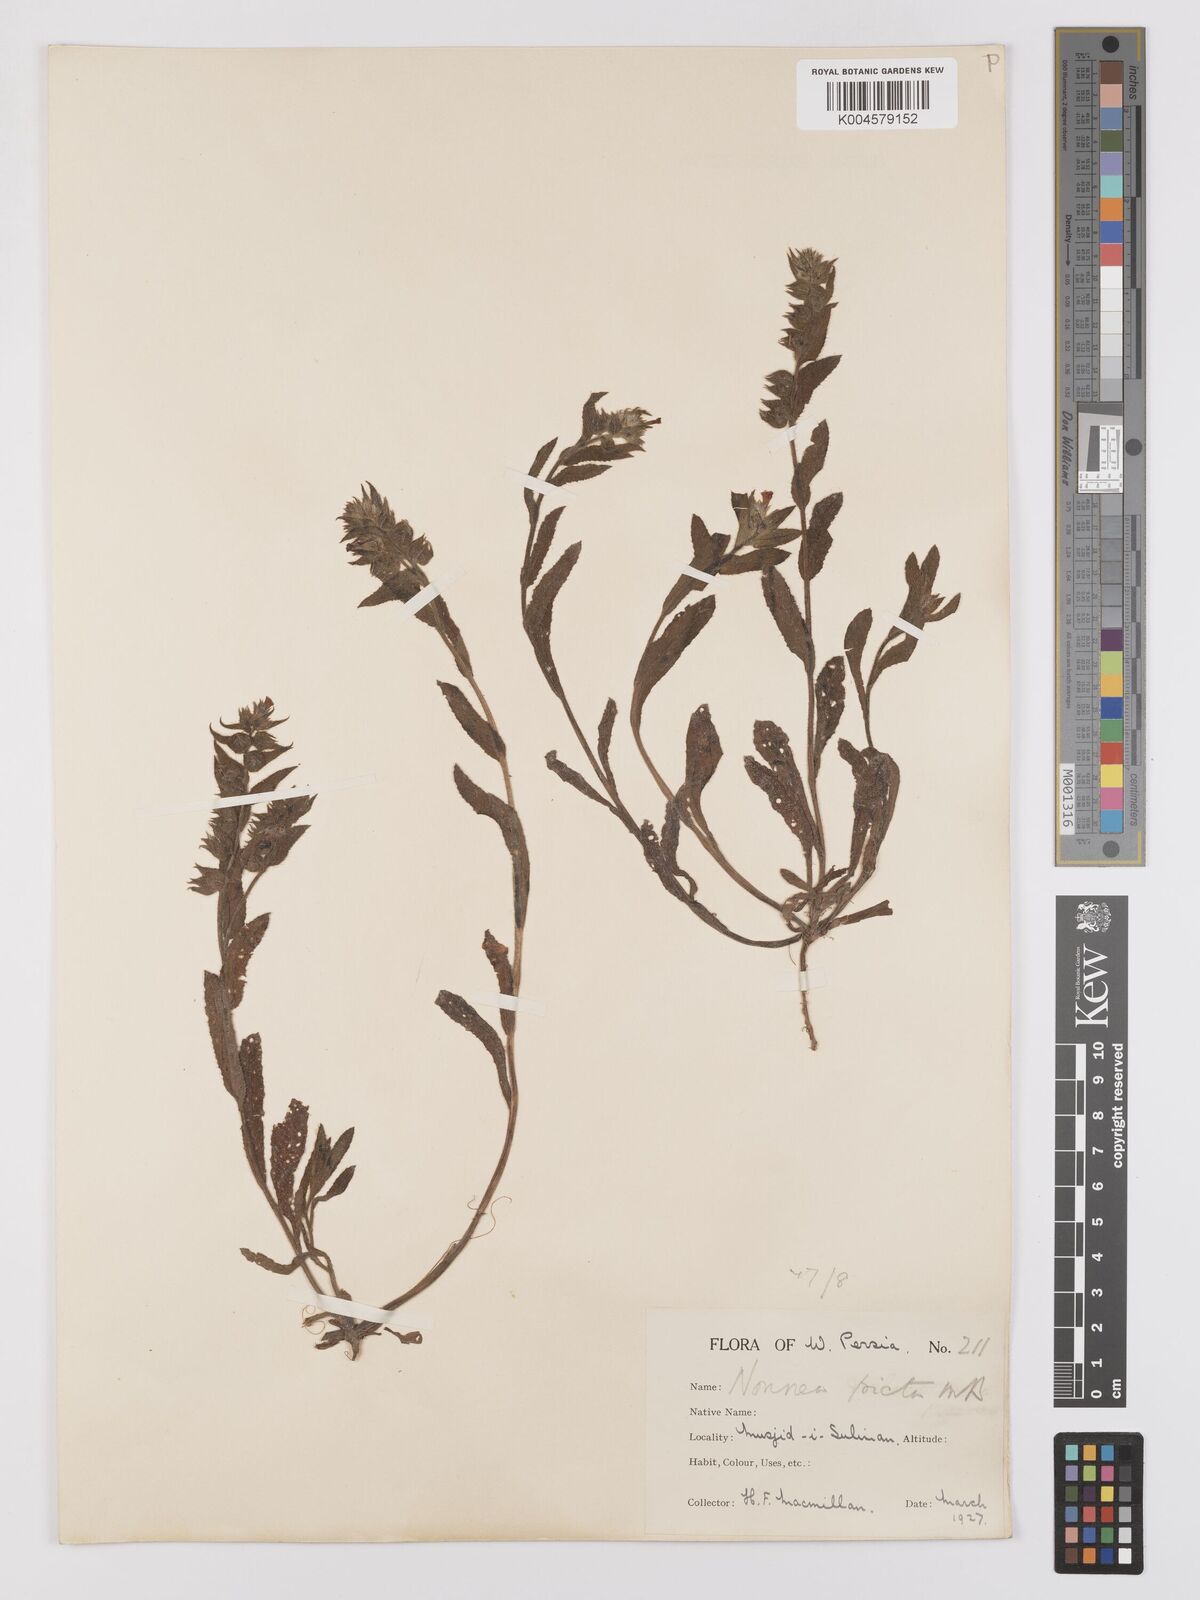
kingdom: Plantae
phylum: Tracheophyta
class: Magnoliopsida
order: Boraginales
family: Boraginaceae
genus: Nonea
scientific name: Nonea
